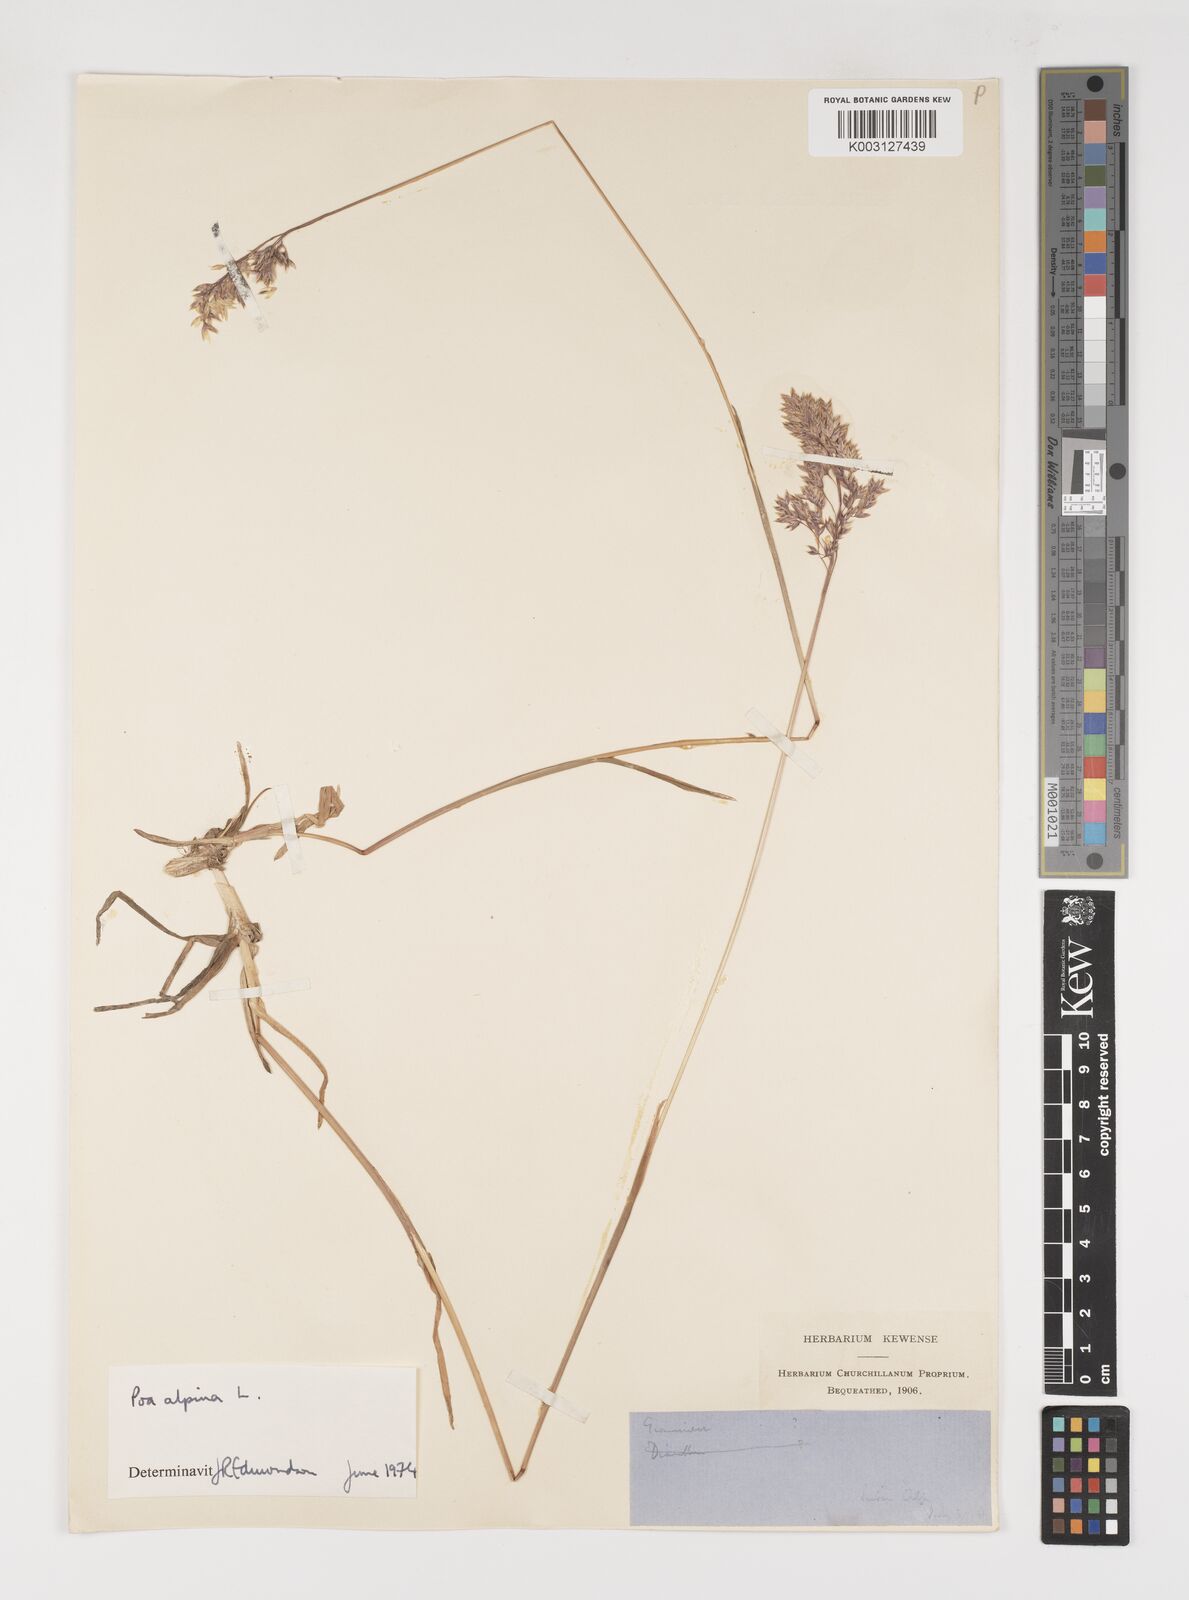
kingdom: Plantae
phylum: Tracheophyta
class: Liliopsida
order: Poales
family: Poaceae
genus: Poa
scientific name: Poa alpina
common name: Alpine bluegrass
